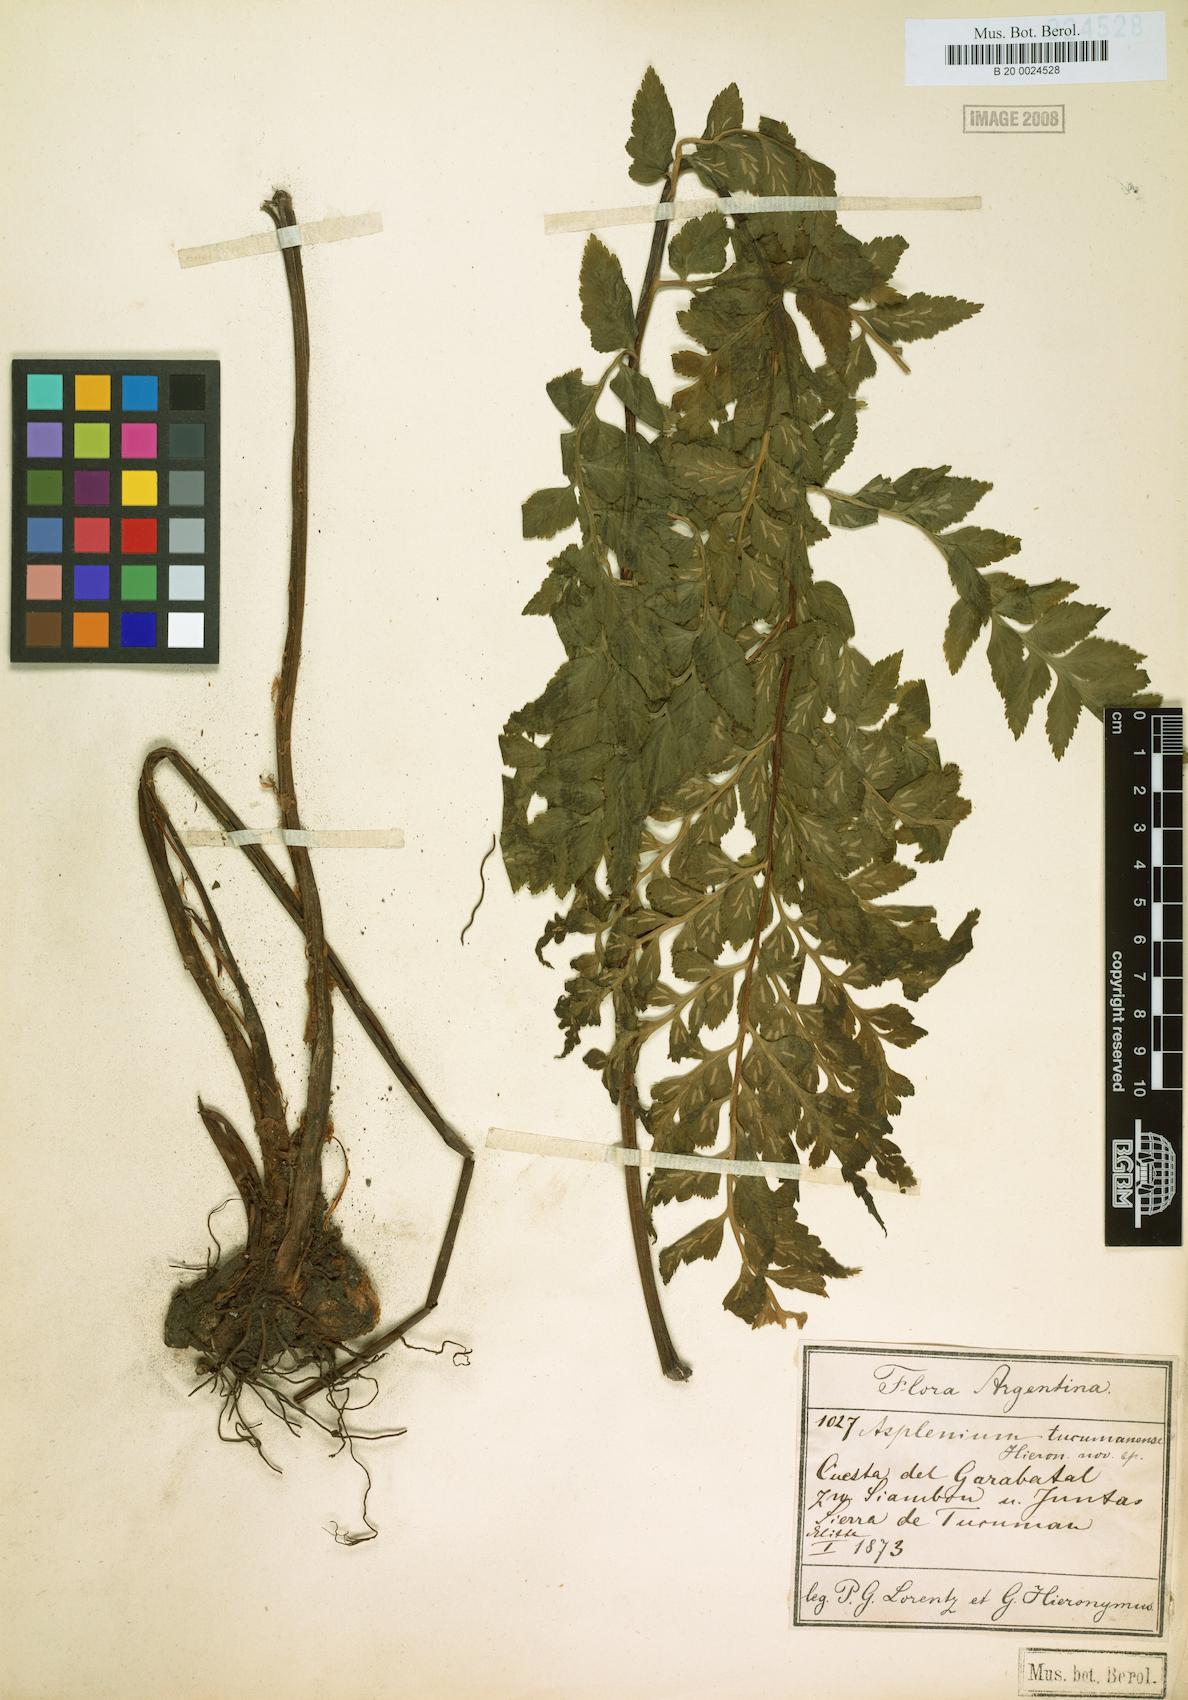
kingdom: Plantae
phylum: Tracheophyta
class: Polypodiopsida
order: Polypodiales
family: Aspleniaceae
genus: Asplenium
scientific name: Asplenium squamosum
